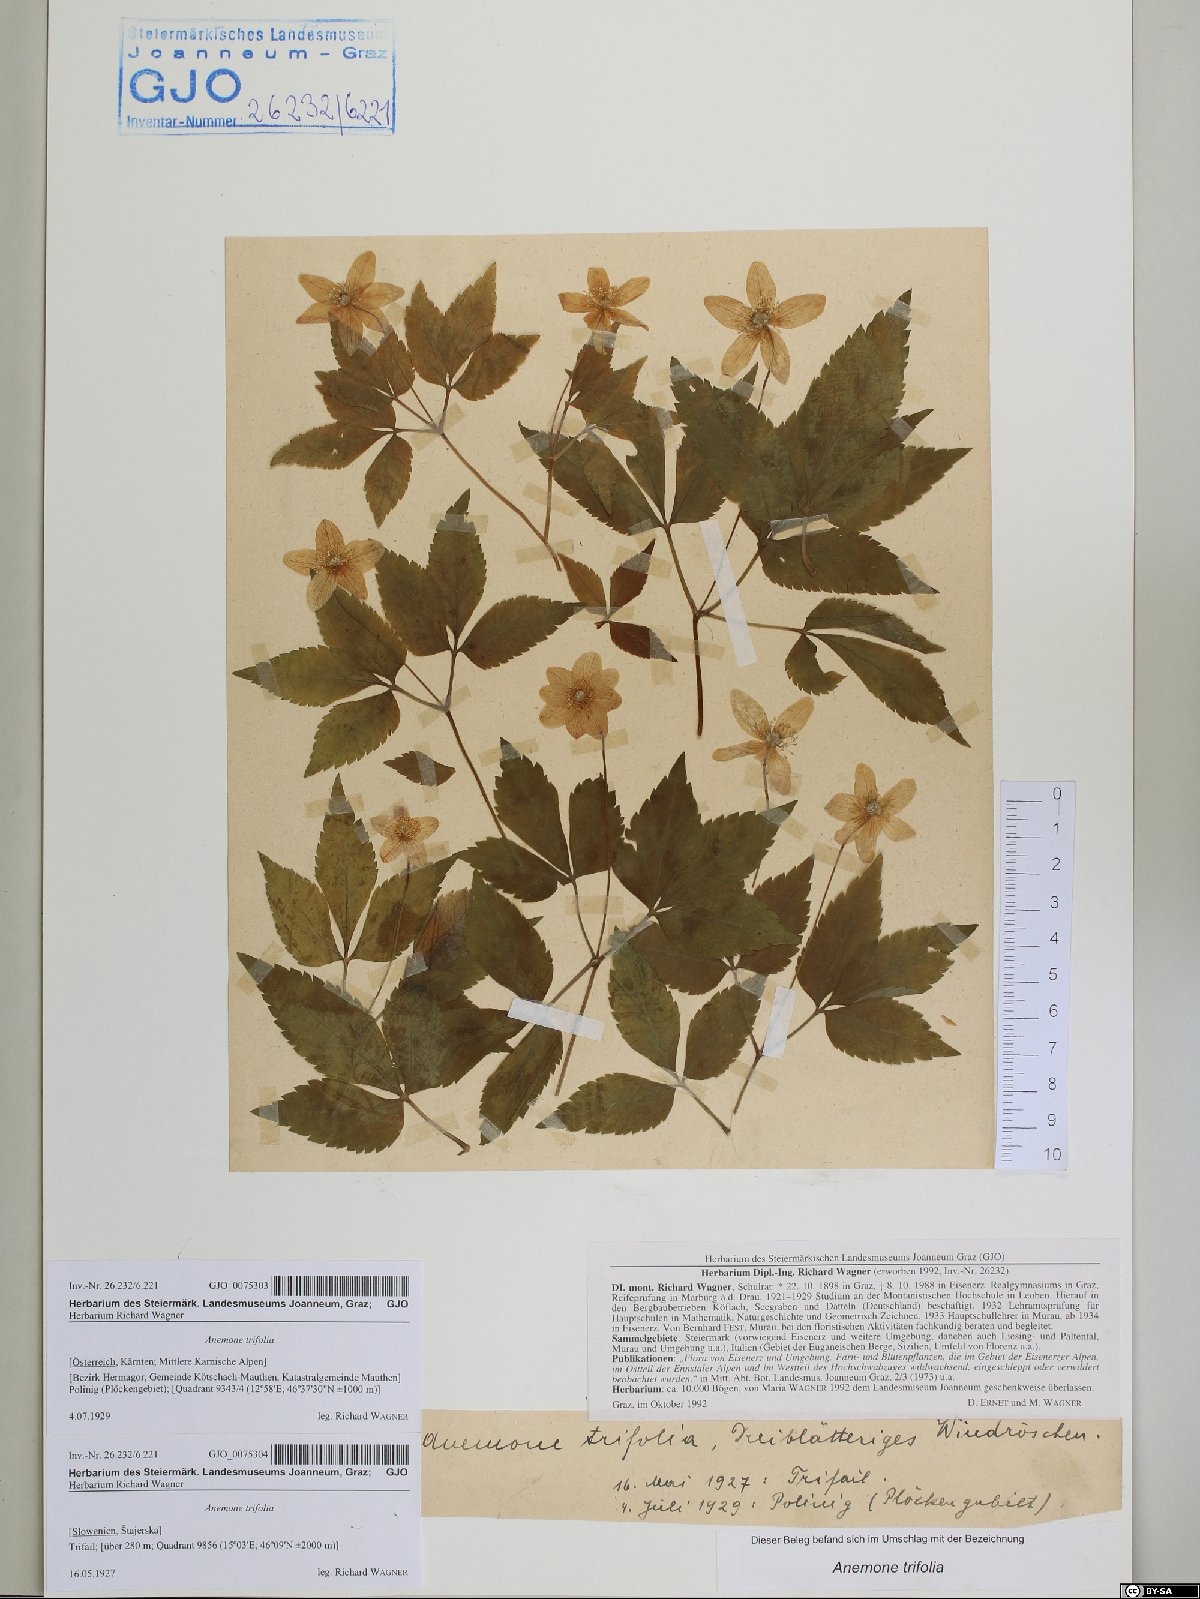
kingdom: Plantae
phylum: Tracheophyta
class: Magnoliopsida
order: Ranunculales
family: Ranunculaceae
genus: Anemone
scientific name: Anemone trifolia
